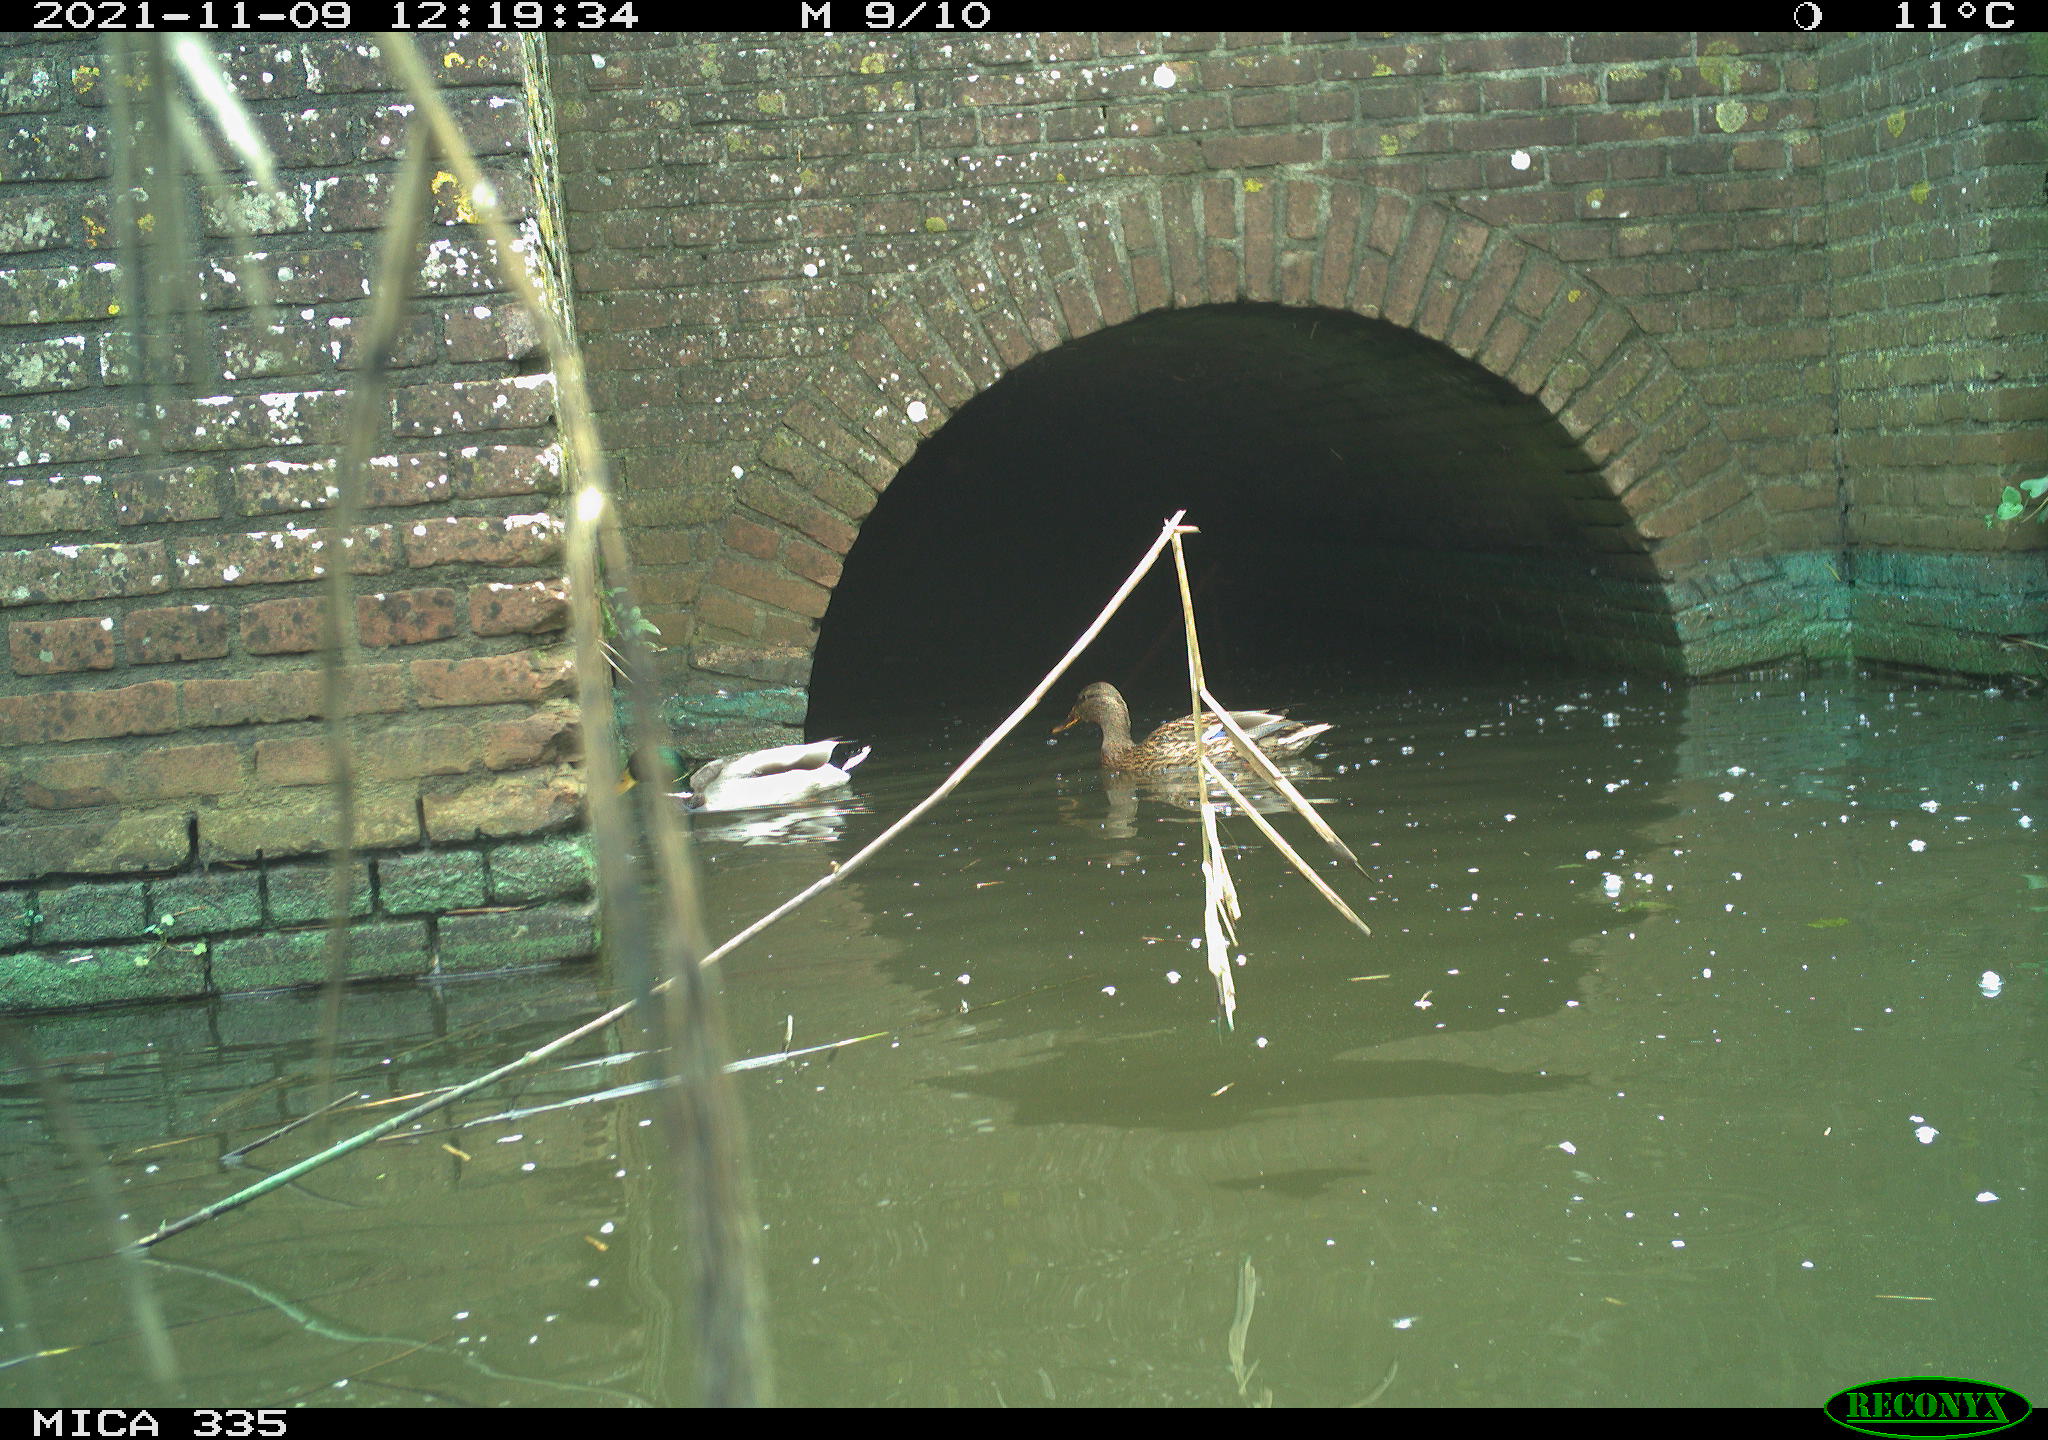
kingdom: Animalia
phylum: Chordata
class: Aves
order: Anseriformes
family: Anatidae
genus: Anas
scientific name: Anas platyrhynchos
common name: Mallard
